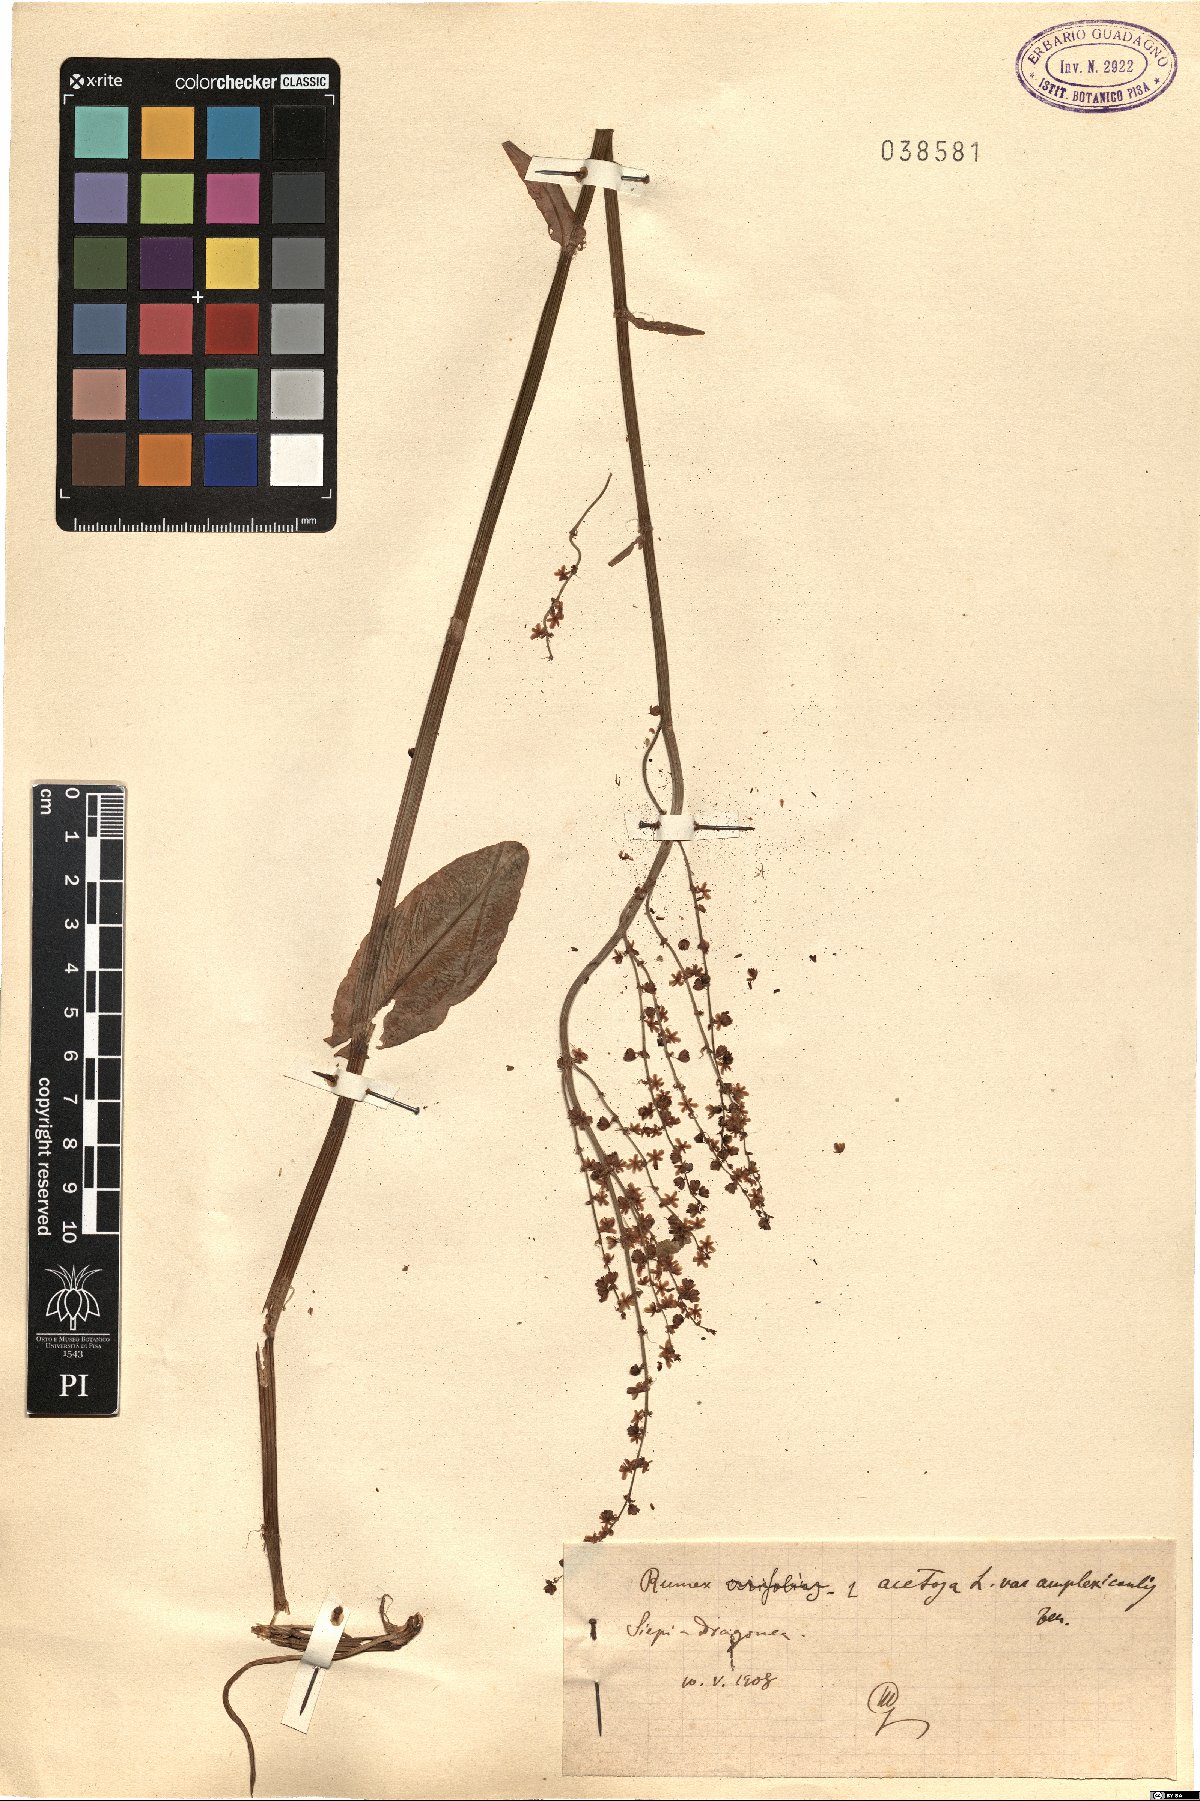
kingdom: Plantae
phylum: Tracheophyta
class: Magnoliopsida
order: Caryophyllales
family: Polygonaceae
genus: Rumex
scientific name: Rumex arifolius
